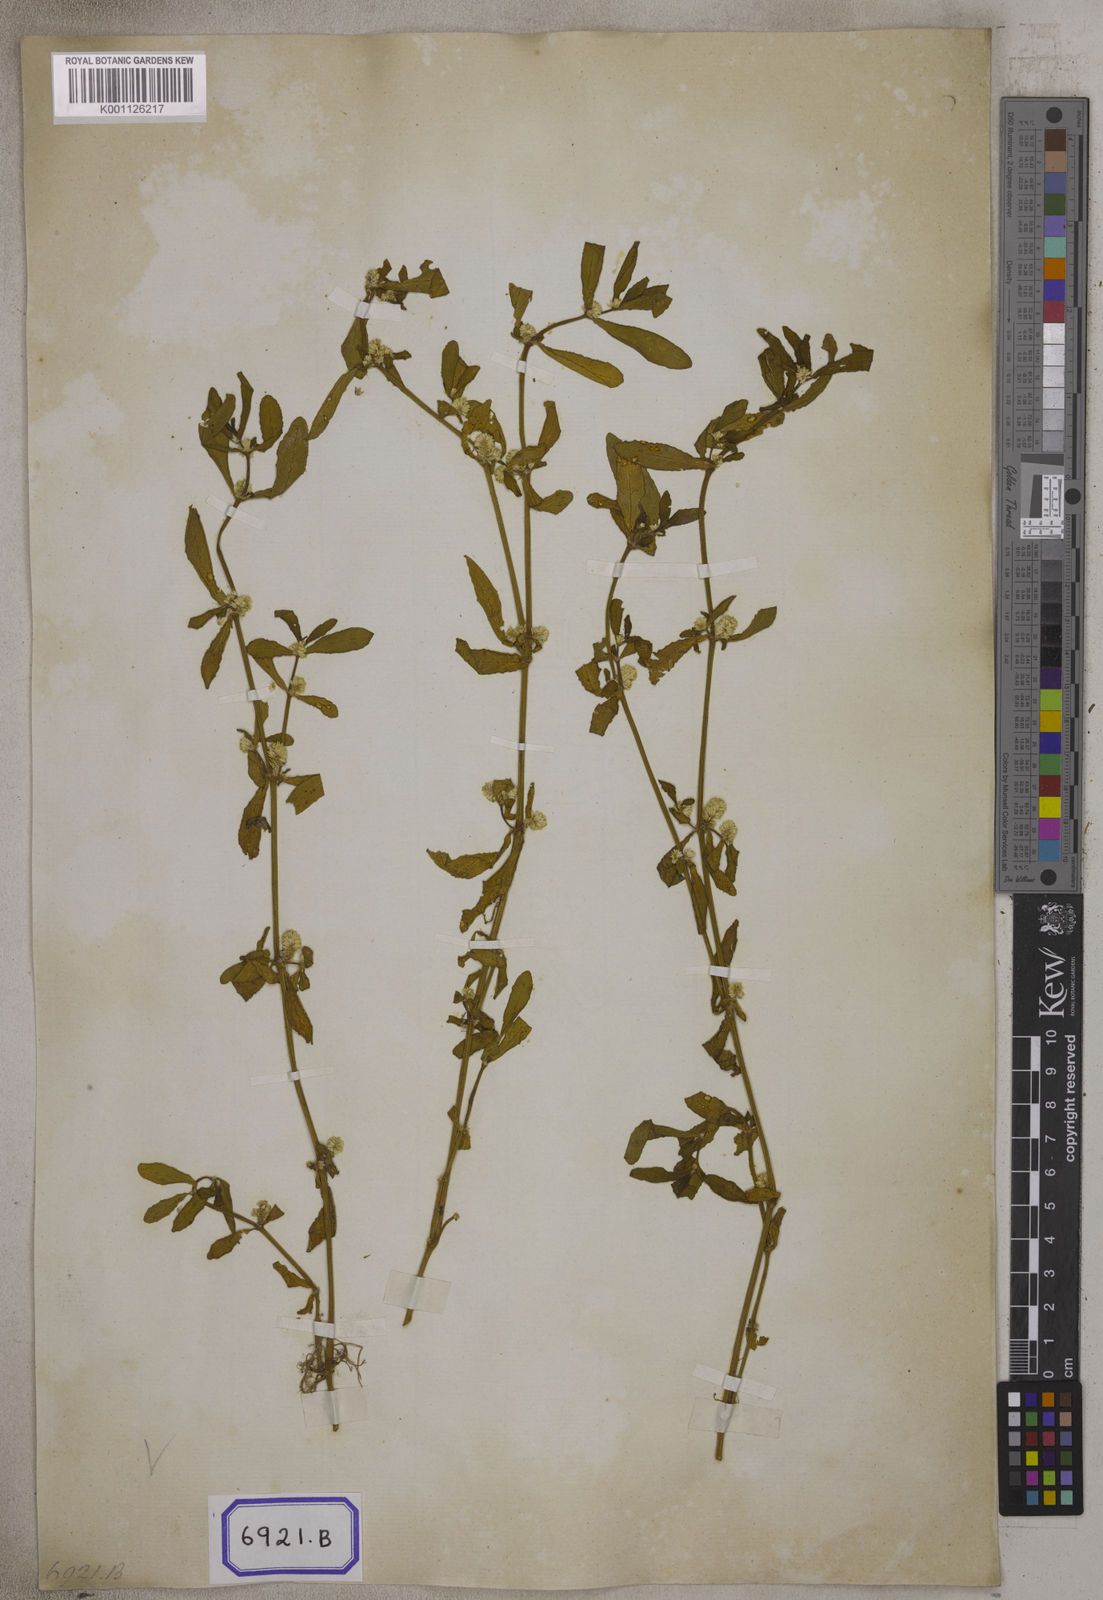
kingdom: Plantae
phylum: Tracheophyta
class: Magnoliopsida
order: Caryophyllales
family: Amaranthaceae
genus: Alternanthera
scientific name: Alternanthera
